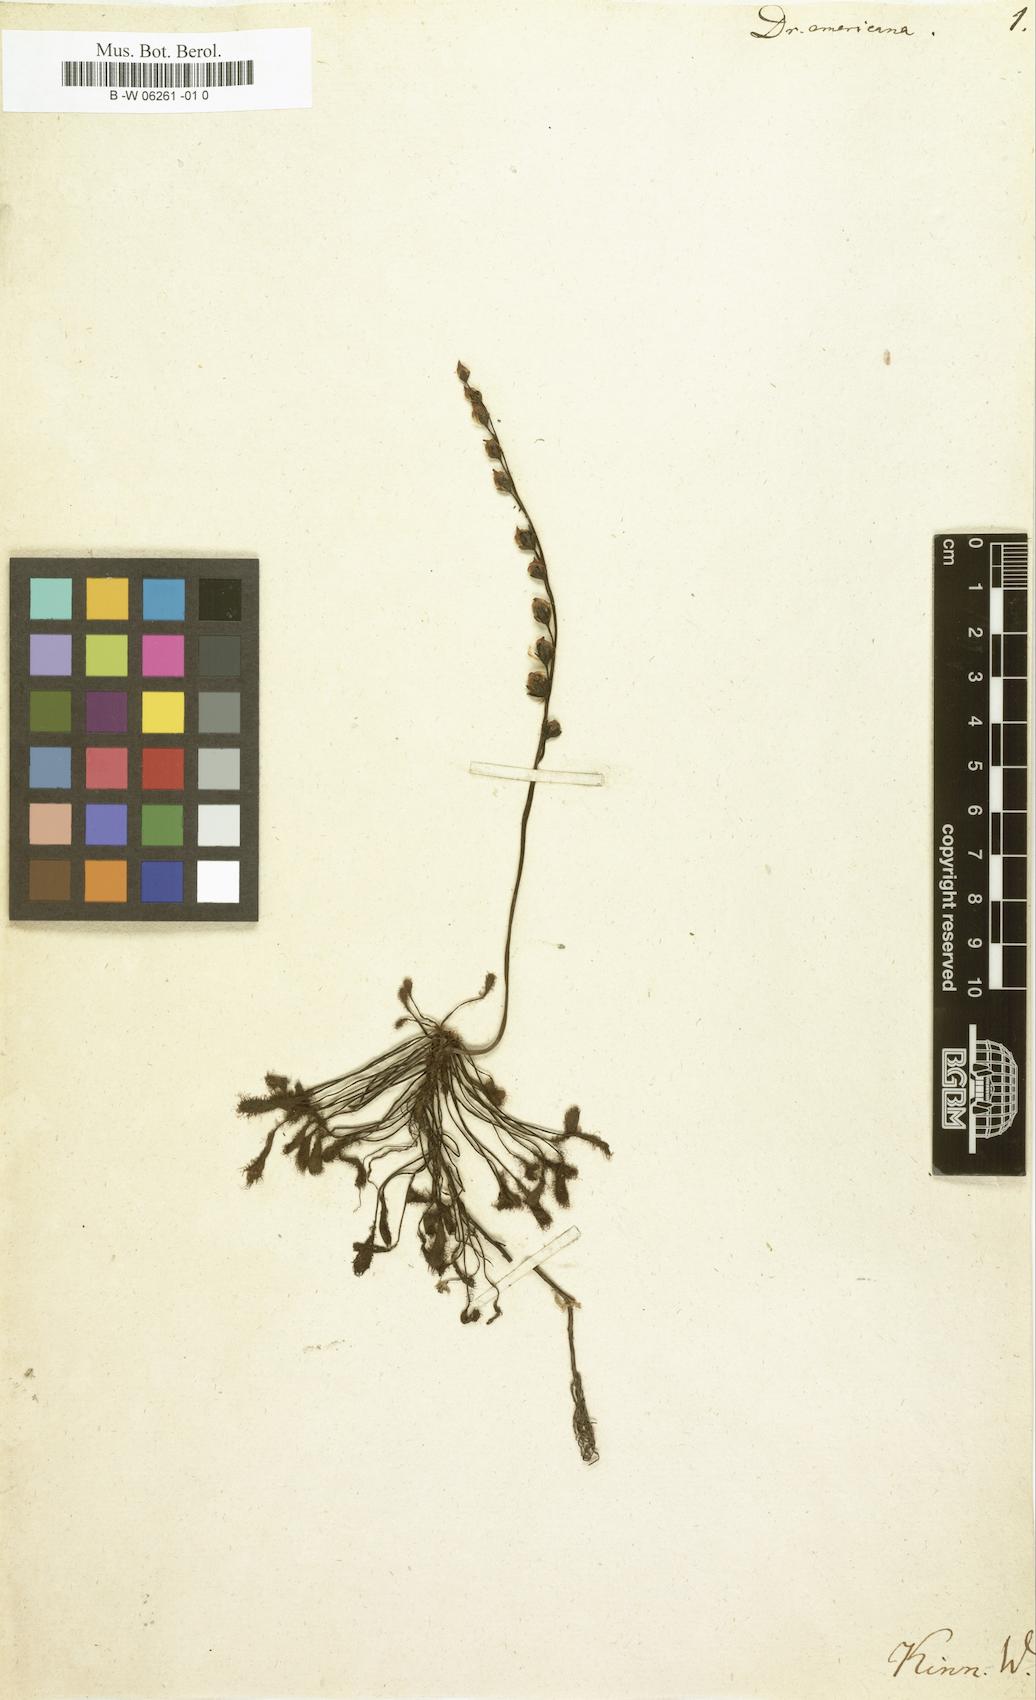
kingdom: Plantae
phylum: Tracheophyta
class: Magnoliopsida
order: Caryophyllales
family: Droseraceae
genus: Drosera
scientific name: Drosera intermedia
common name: Oblong-leaved sundew
